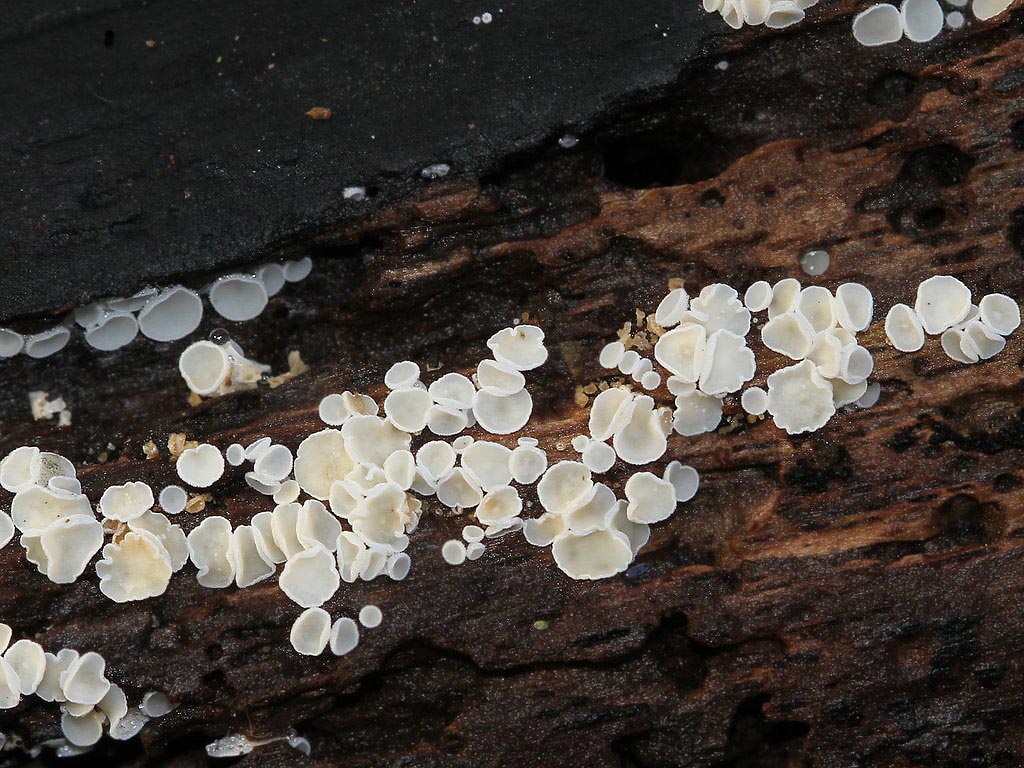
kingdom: Fungi
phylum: Ascomycota
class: Leotiomycetes
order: Helotiales
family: Lachnaceae
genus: Lachnum
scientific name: Lachnum impudicum
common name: vinter-frynseskive
